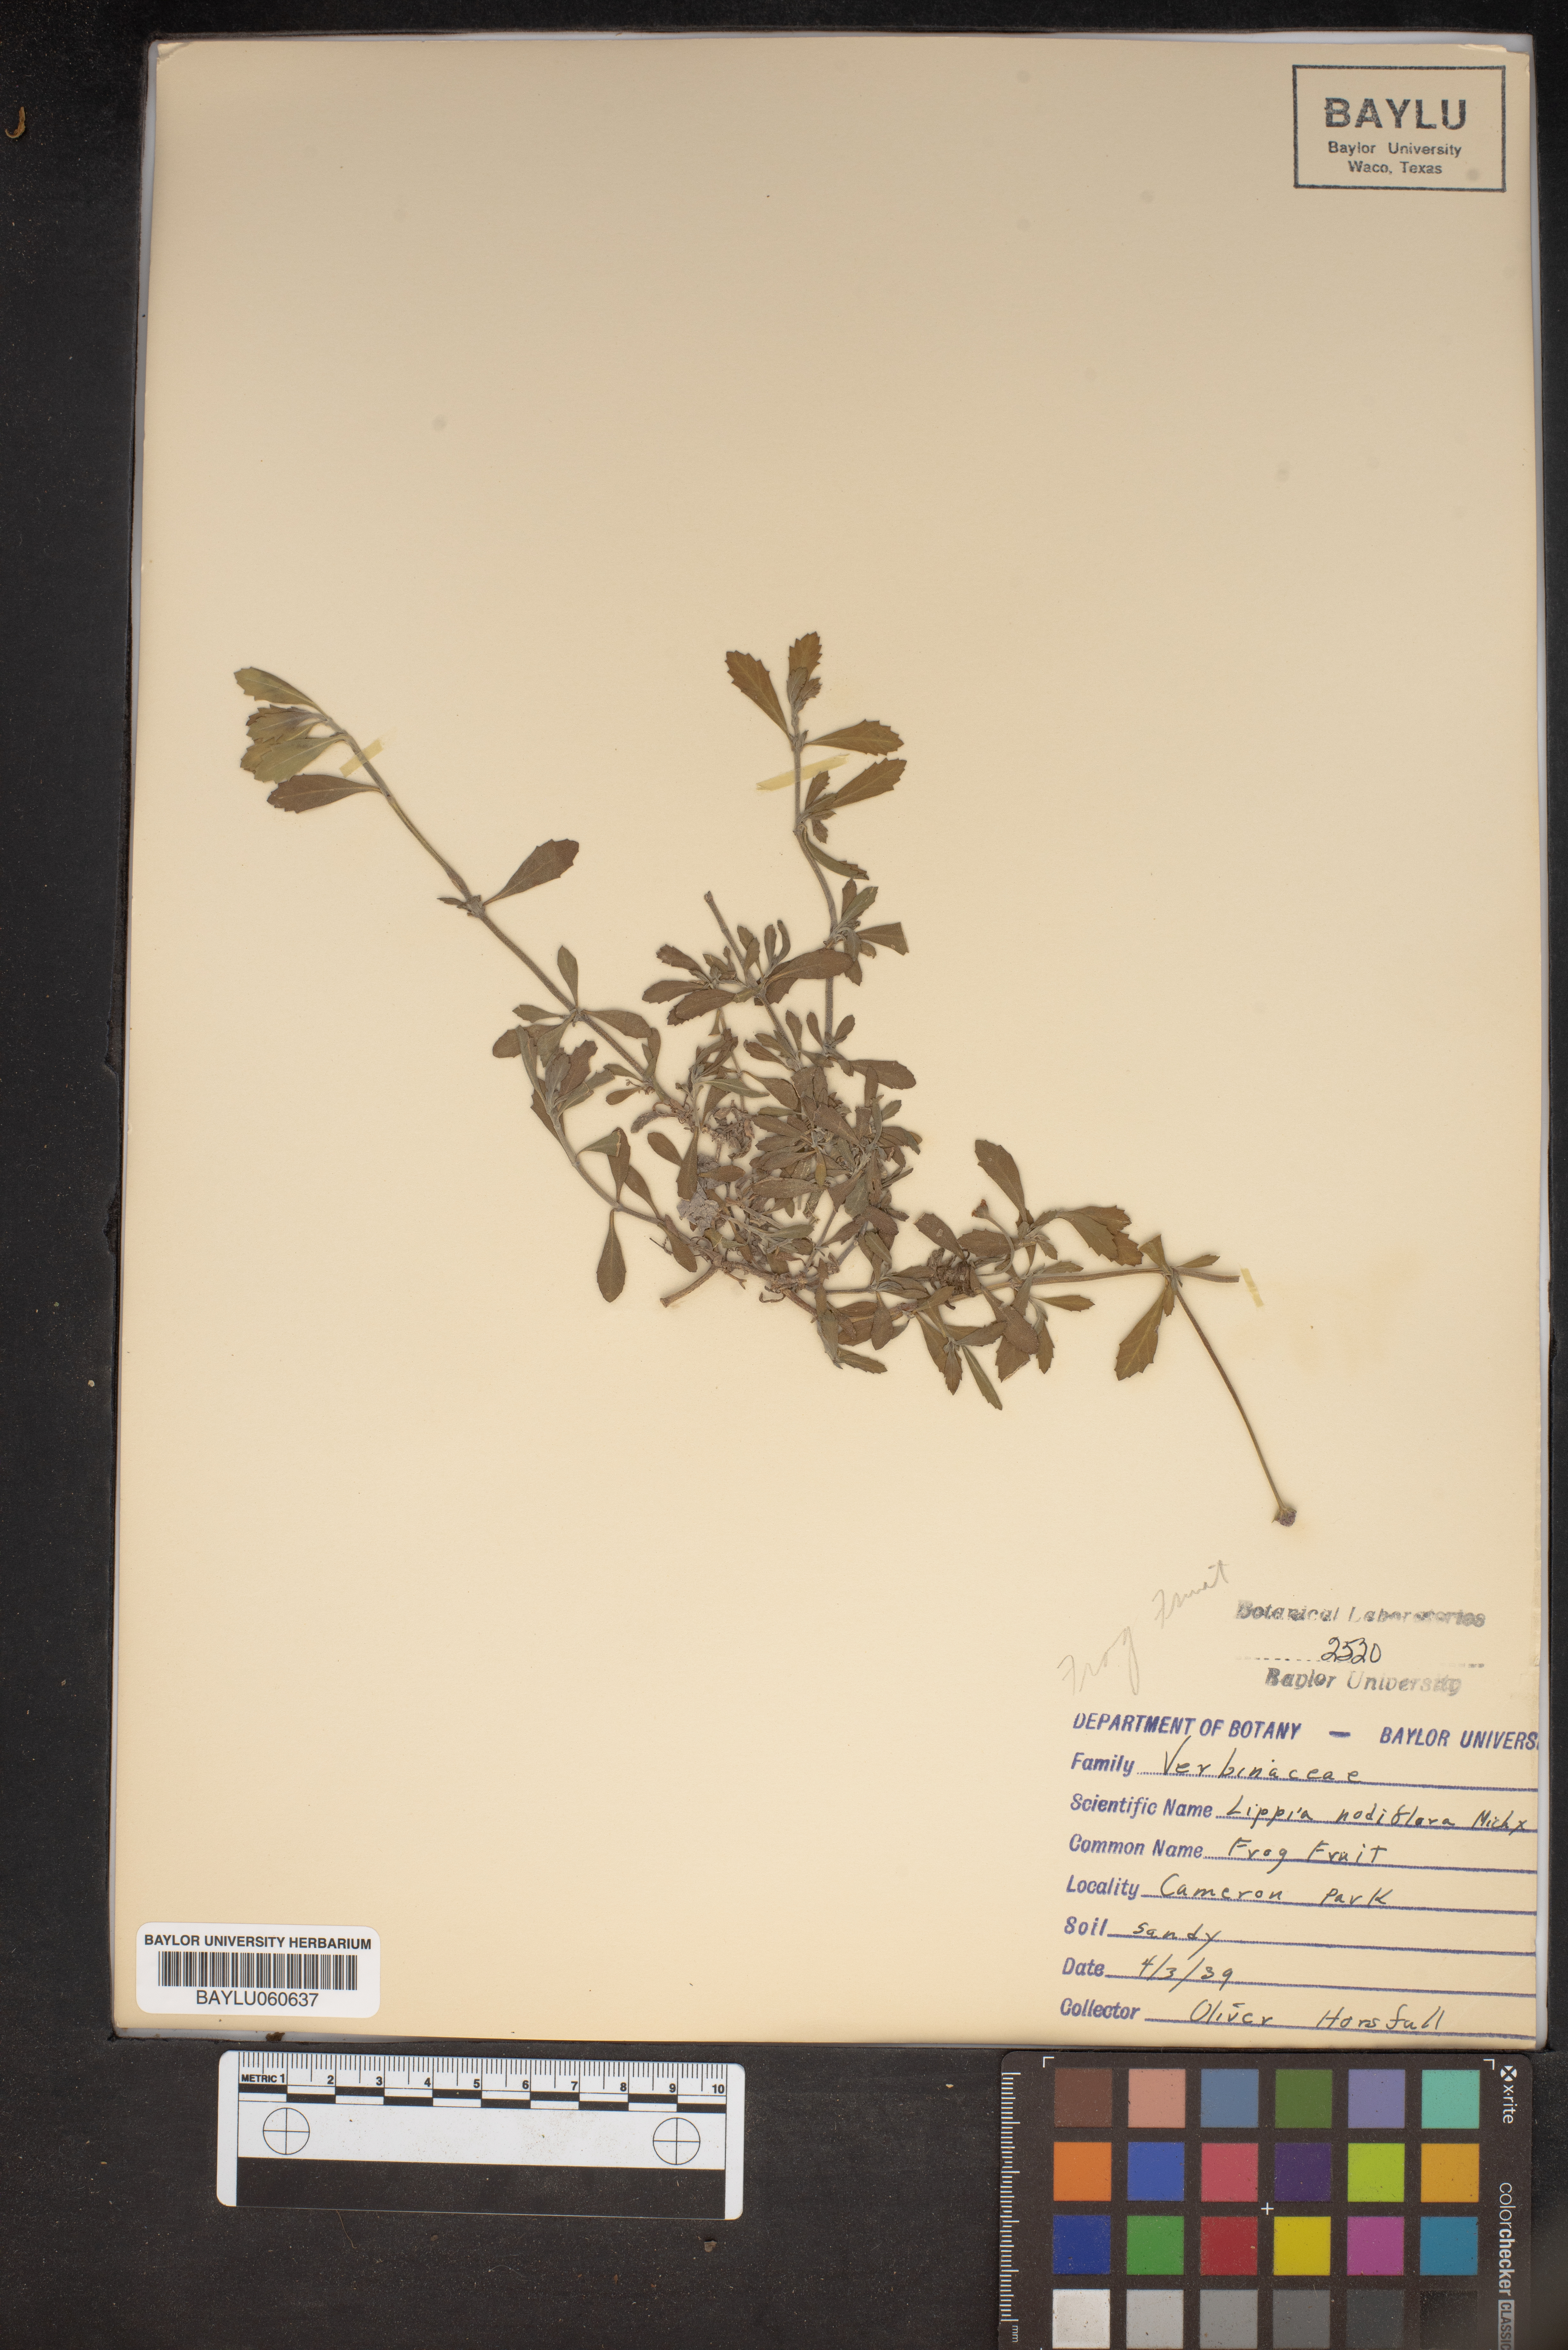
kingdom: Plantae
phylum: Tracheophyta
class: Magnoliopsida
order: Lamiales
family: Verbenaceae
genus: Phyla
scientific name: Phyla nodiflora
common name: Frogfruit
